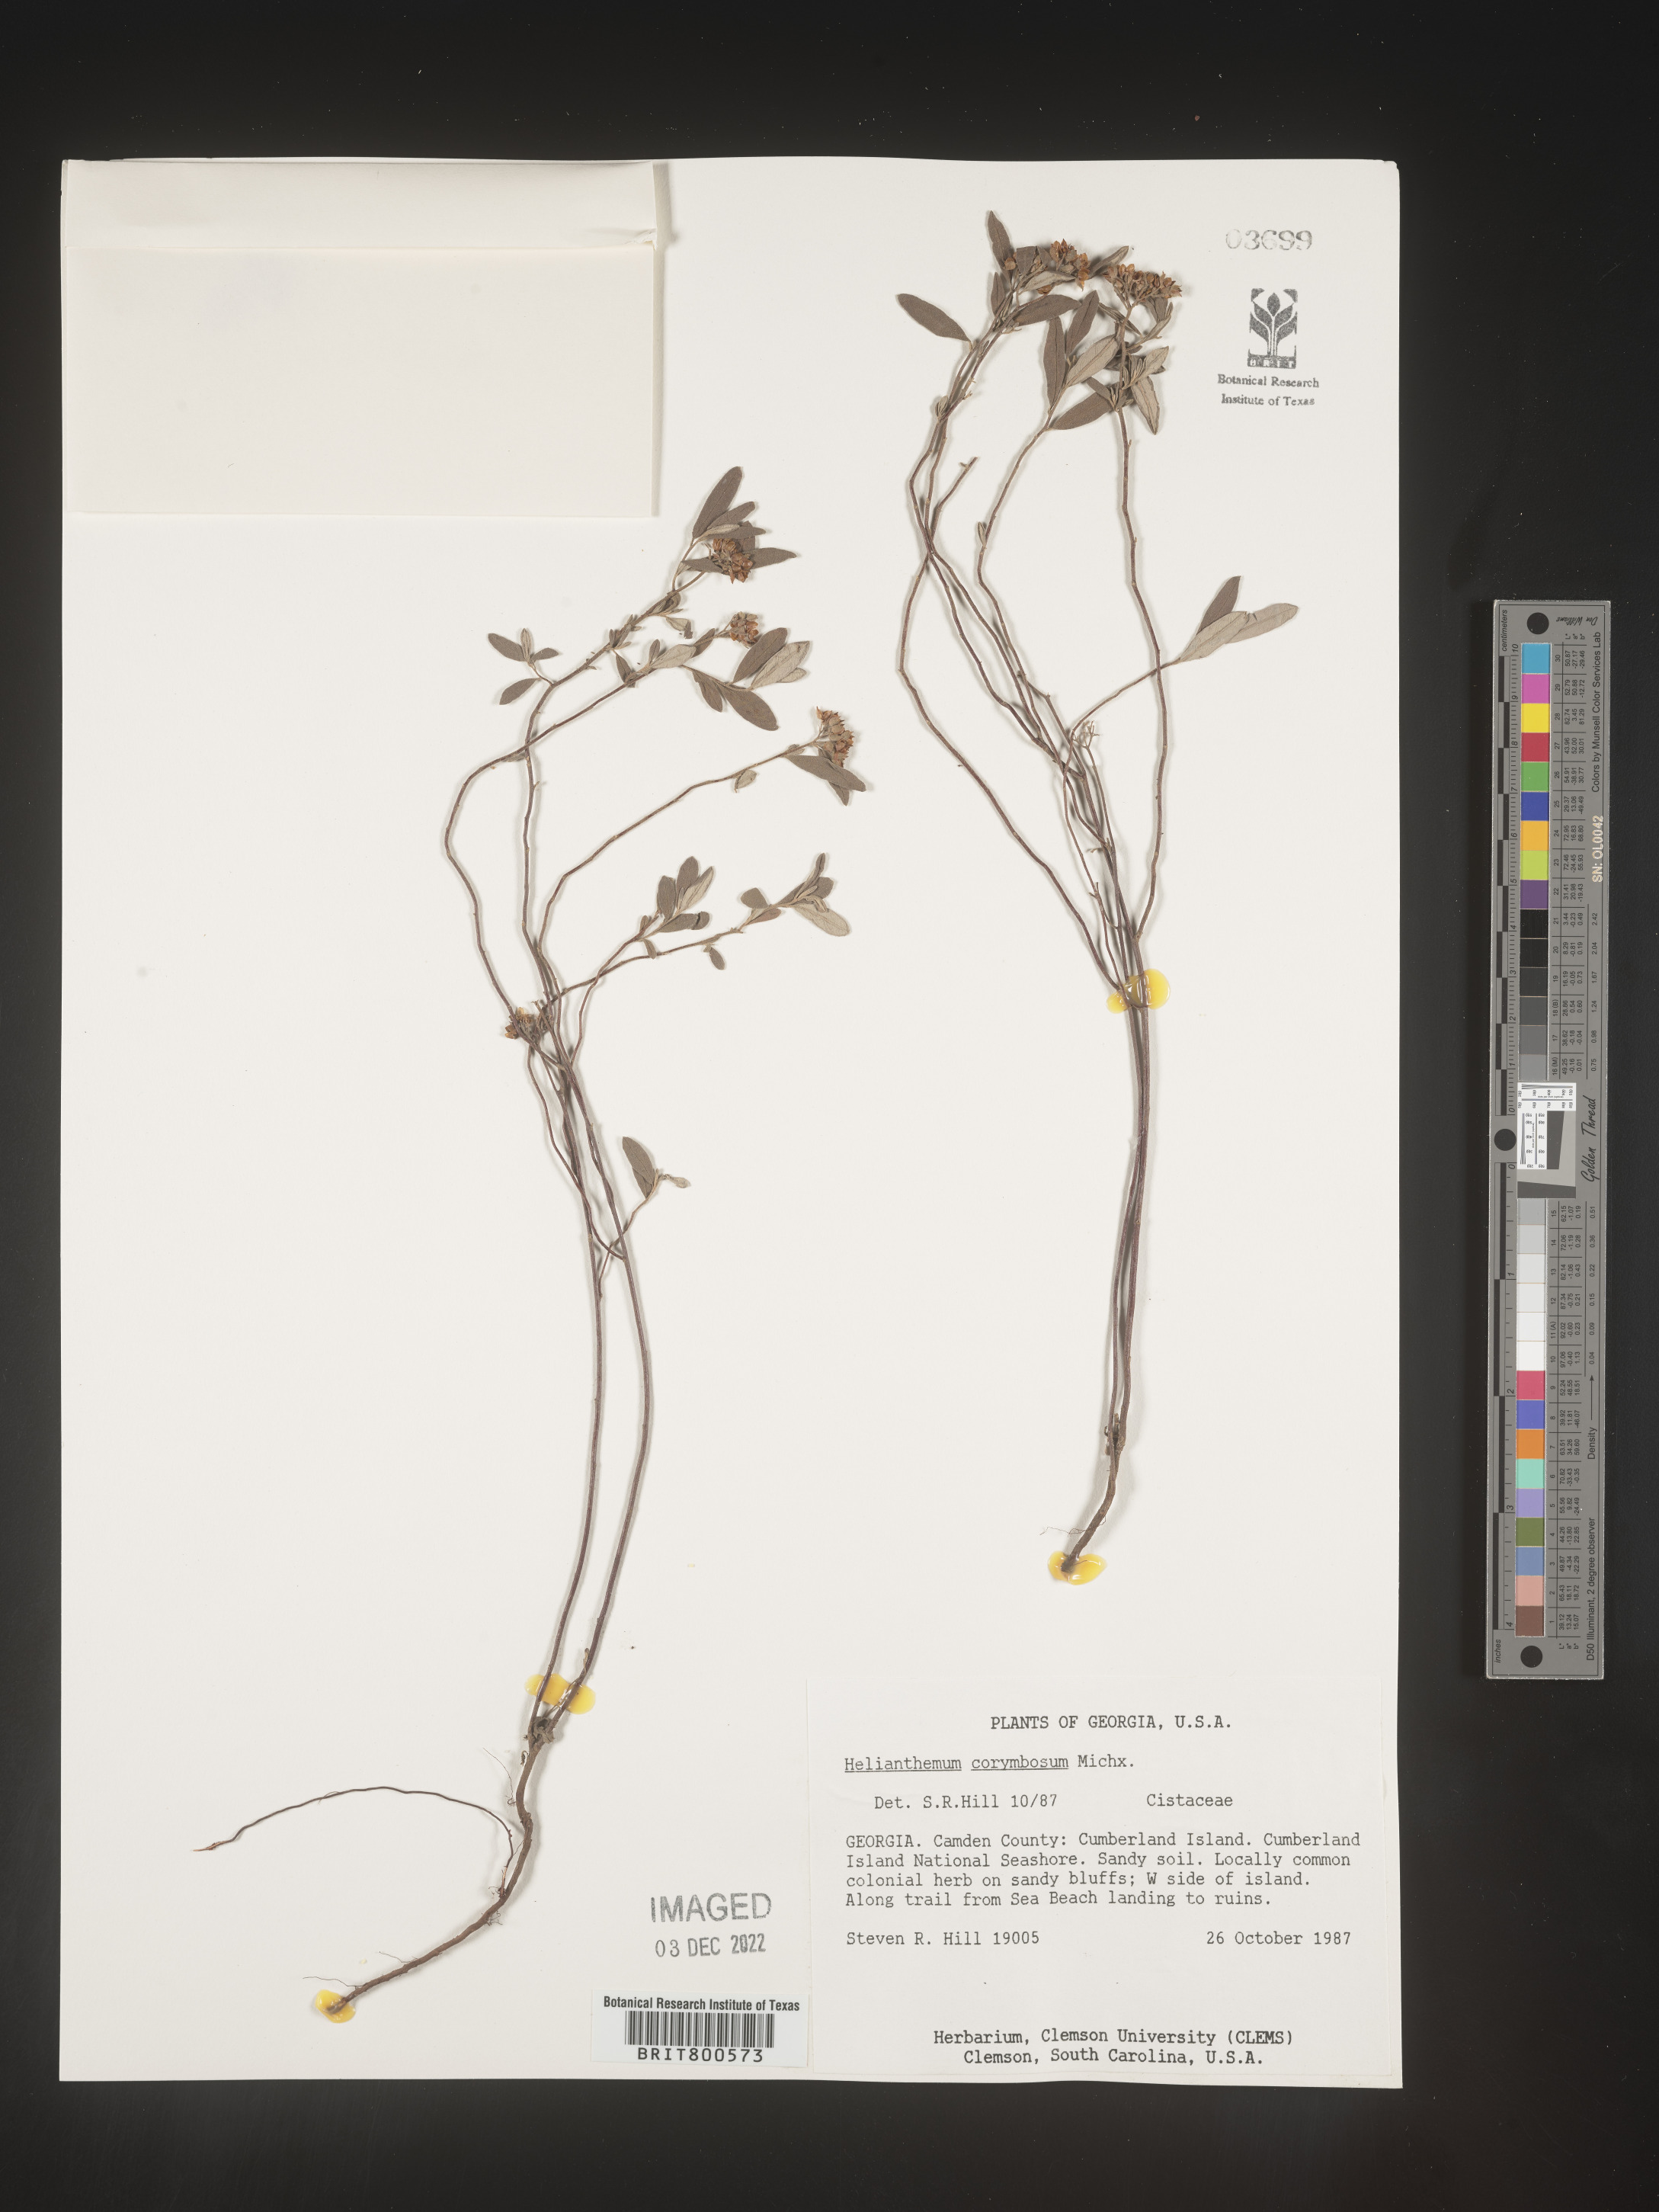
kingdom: Plantae
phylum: Tracheophyta
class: Magnoliopsida
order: Malvales
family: Cistaceae
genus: Crocanthemum
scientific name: Crocanthemum corymbosum
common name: Pinebarren sun-rose
